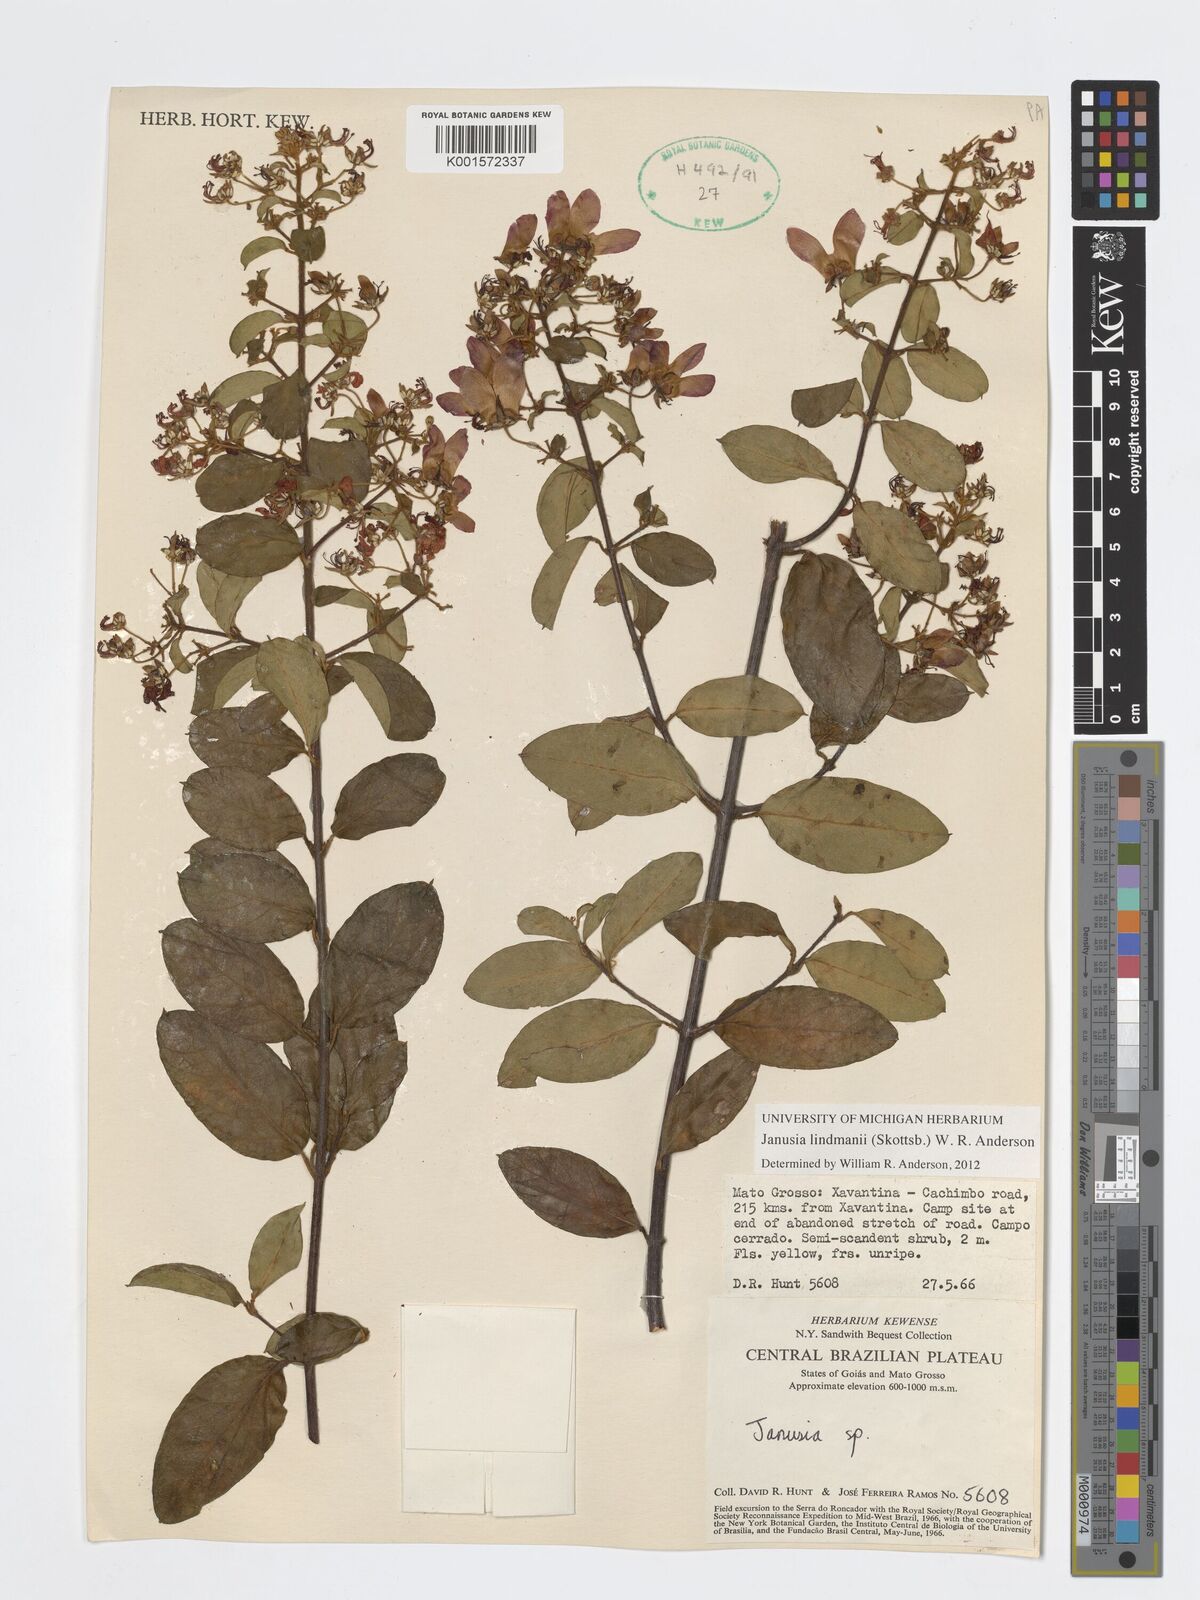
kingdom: Plantae
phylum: Tracheophyta
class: Magnoliopsida
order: Malpighiales
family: Malpighiaceae
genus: Janusia
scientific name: Janusia lindmanii
